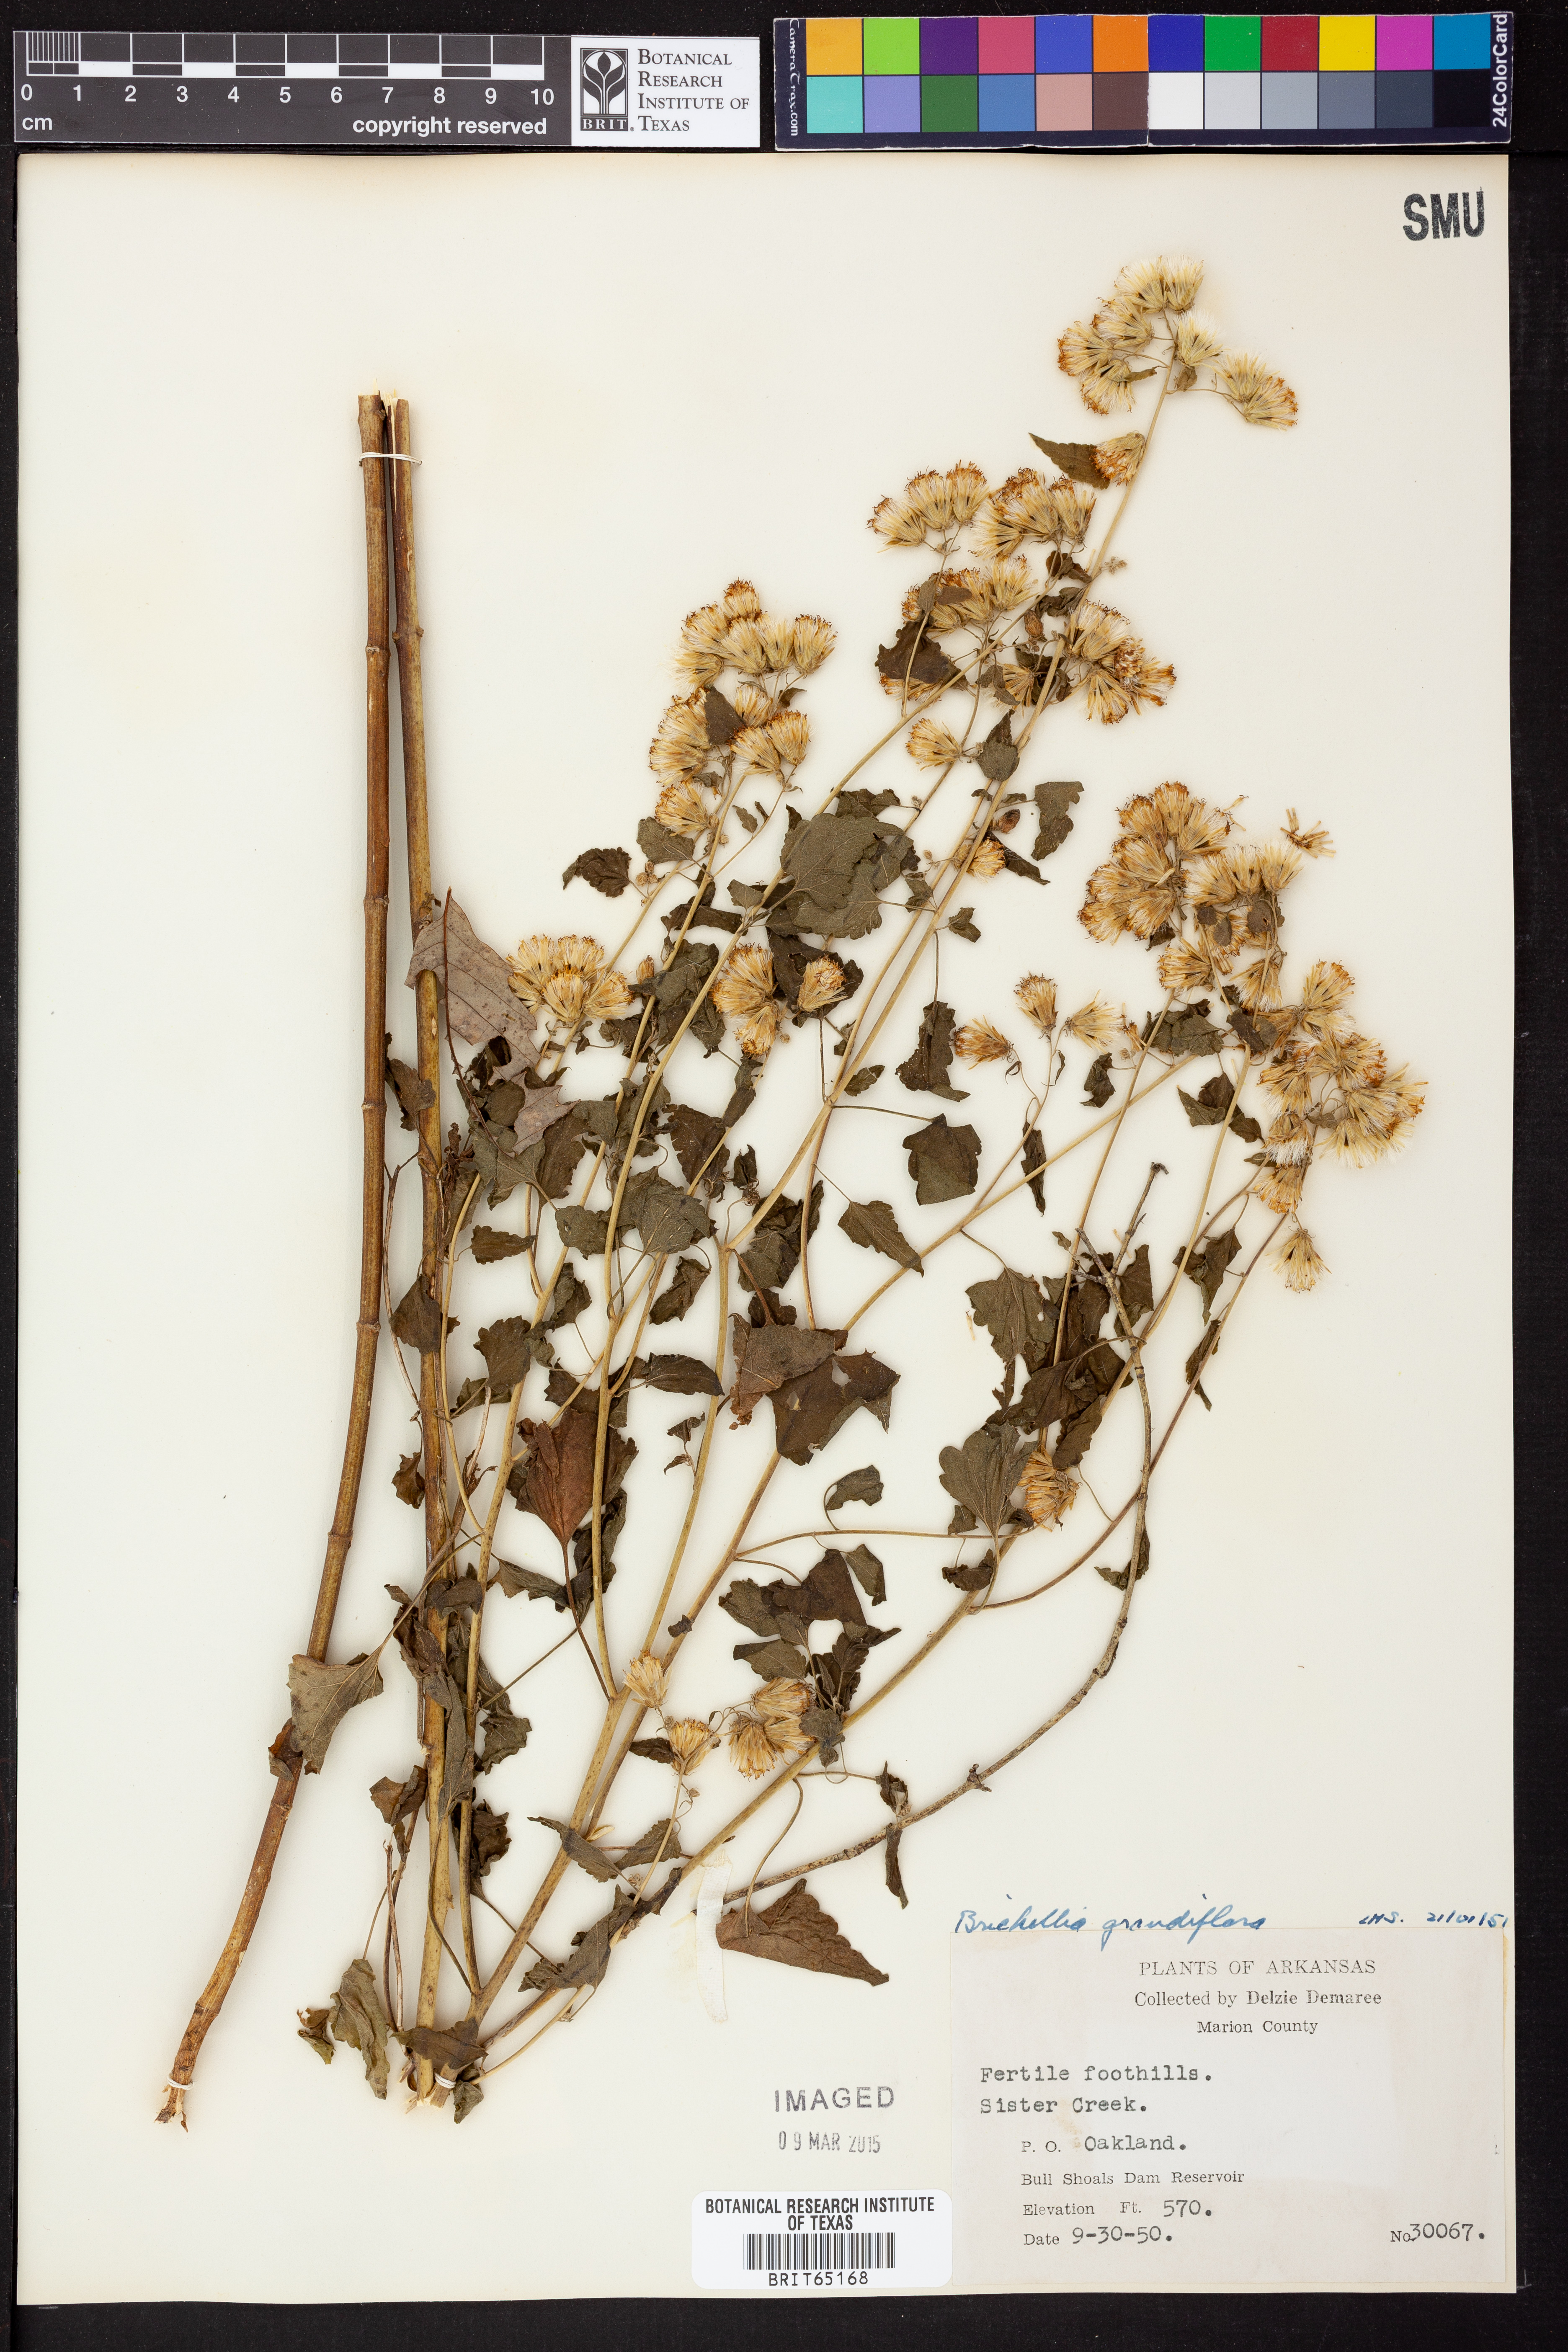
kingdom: Plantae
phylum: Tracheophyta
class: Magnoliopsida
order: Asterales
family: Asteraceae
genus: Brickellia
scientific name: Brickellia grandiflora
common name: Large-flowered brickellia
